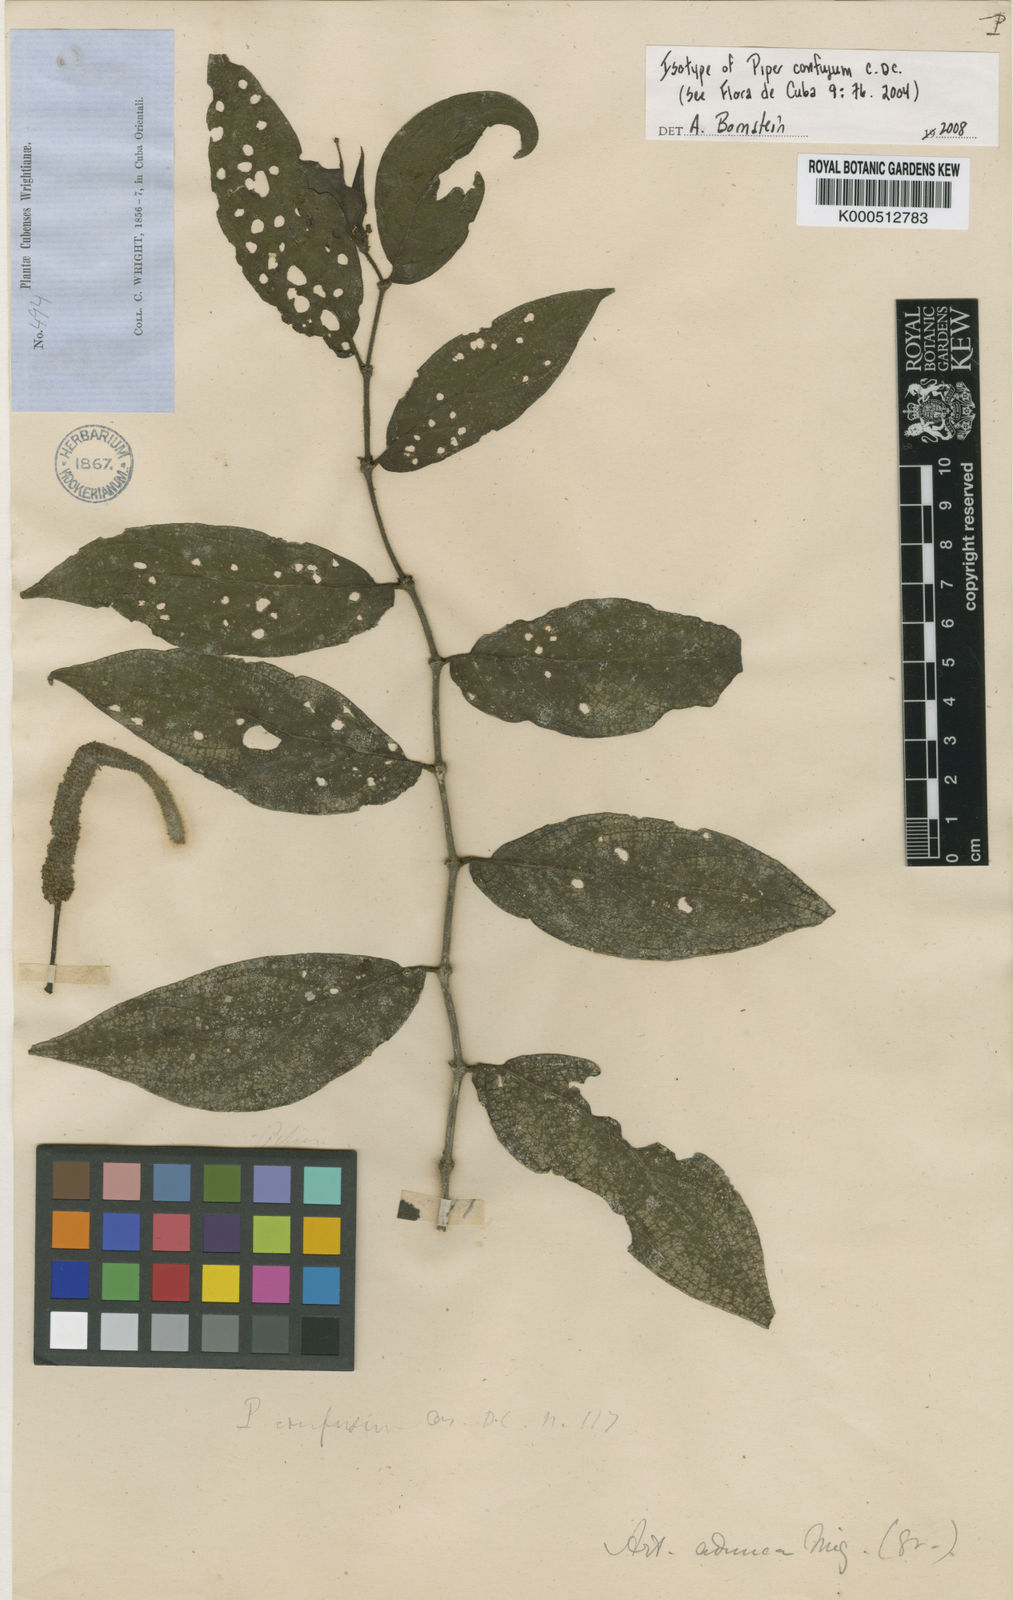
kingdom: Plantae
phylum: Tracheophyta
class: Magnoliopsida
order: Piperales
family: Piperaceae
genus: Piper
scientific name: Piper confusum
